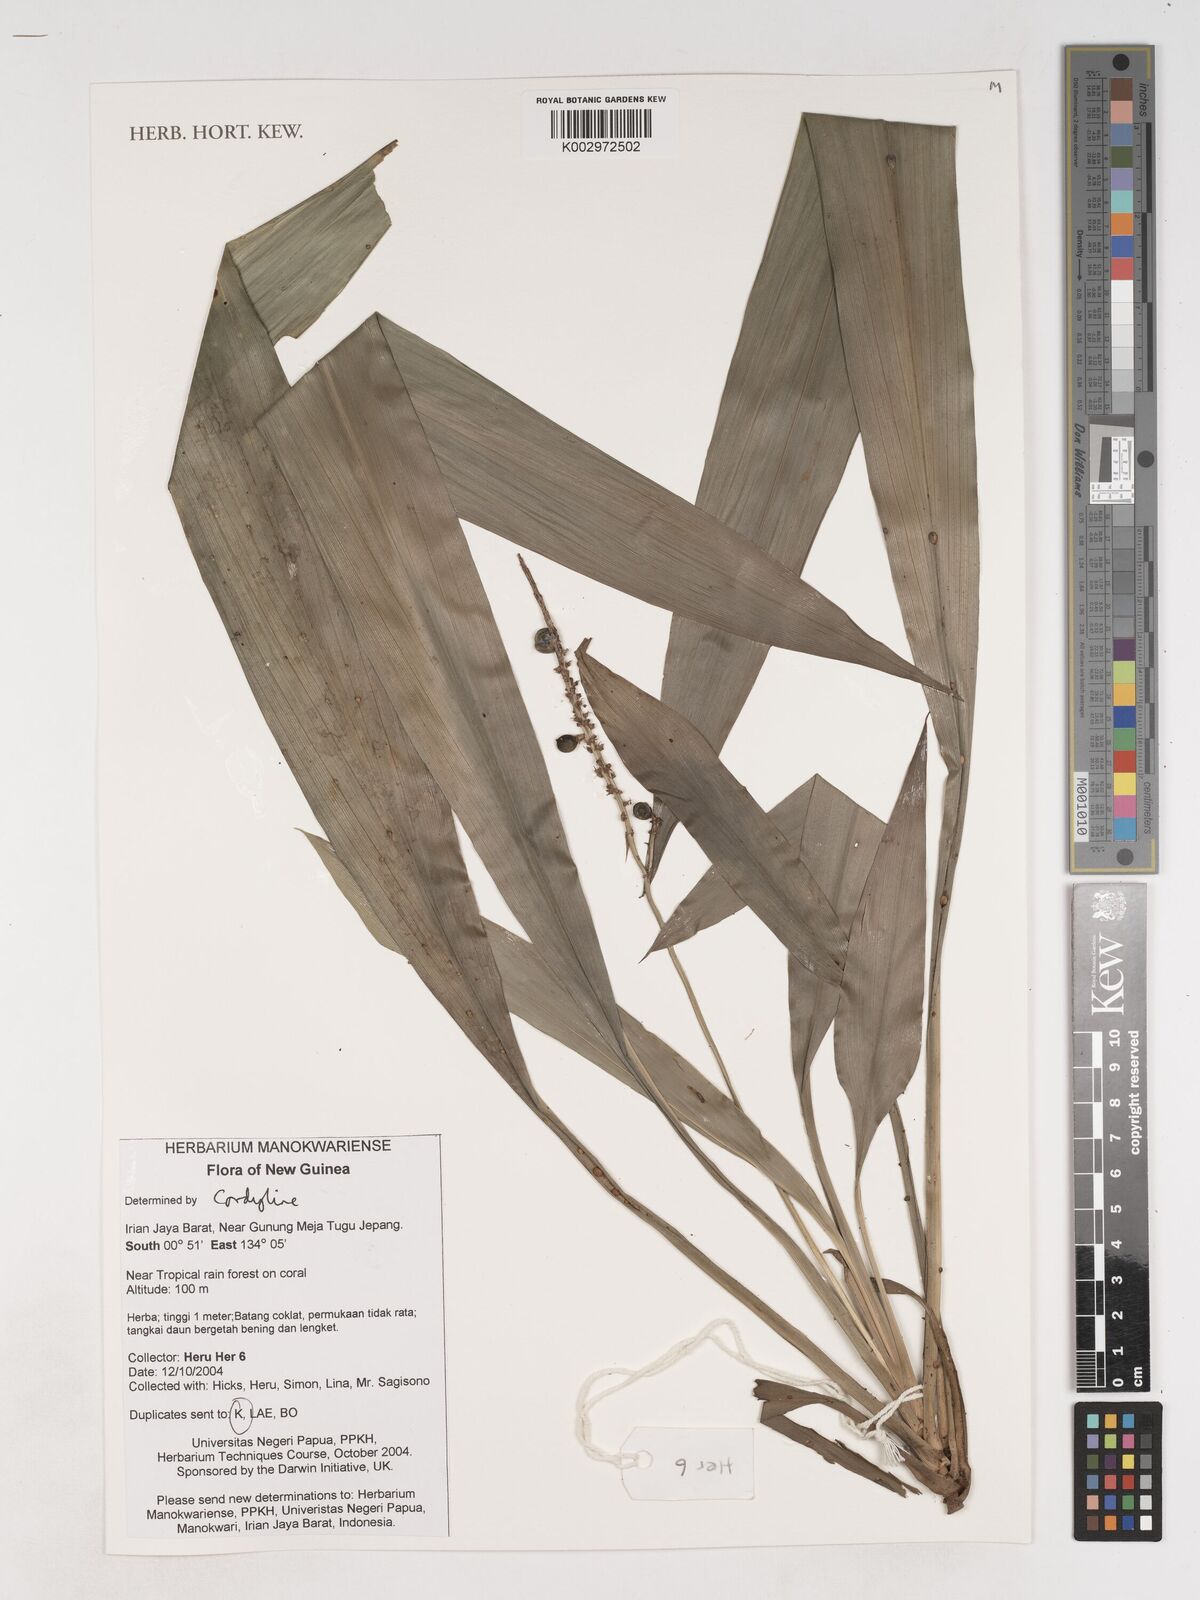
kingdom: Plantae
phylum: Tracheophyta
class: Liliopsida
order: Asparagales
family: Asparagaceae
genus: Cordyline
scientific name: Cordyline
